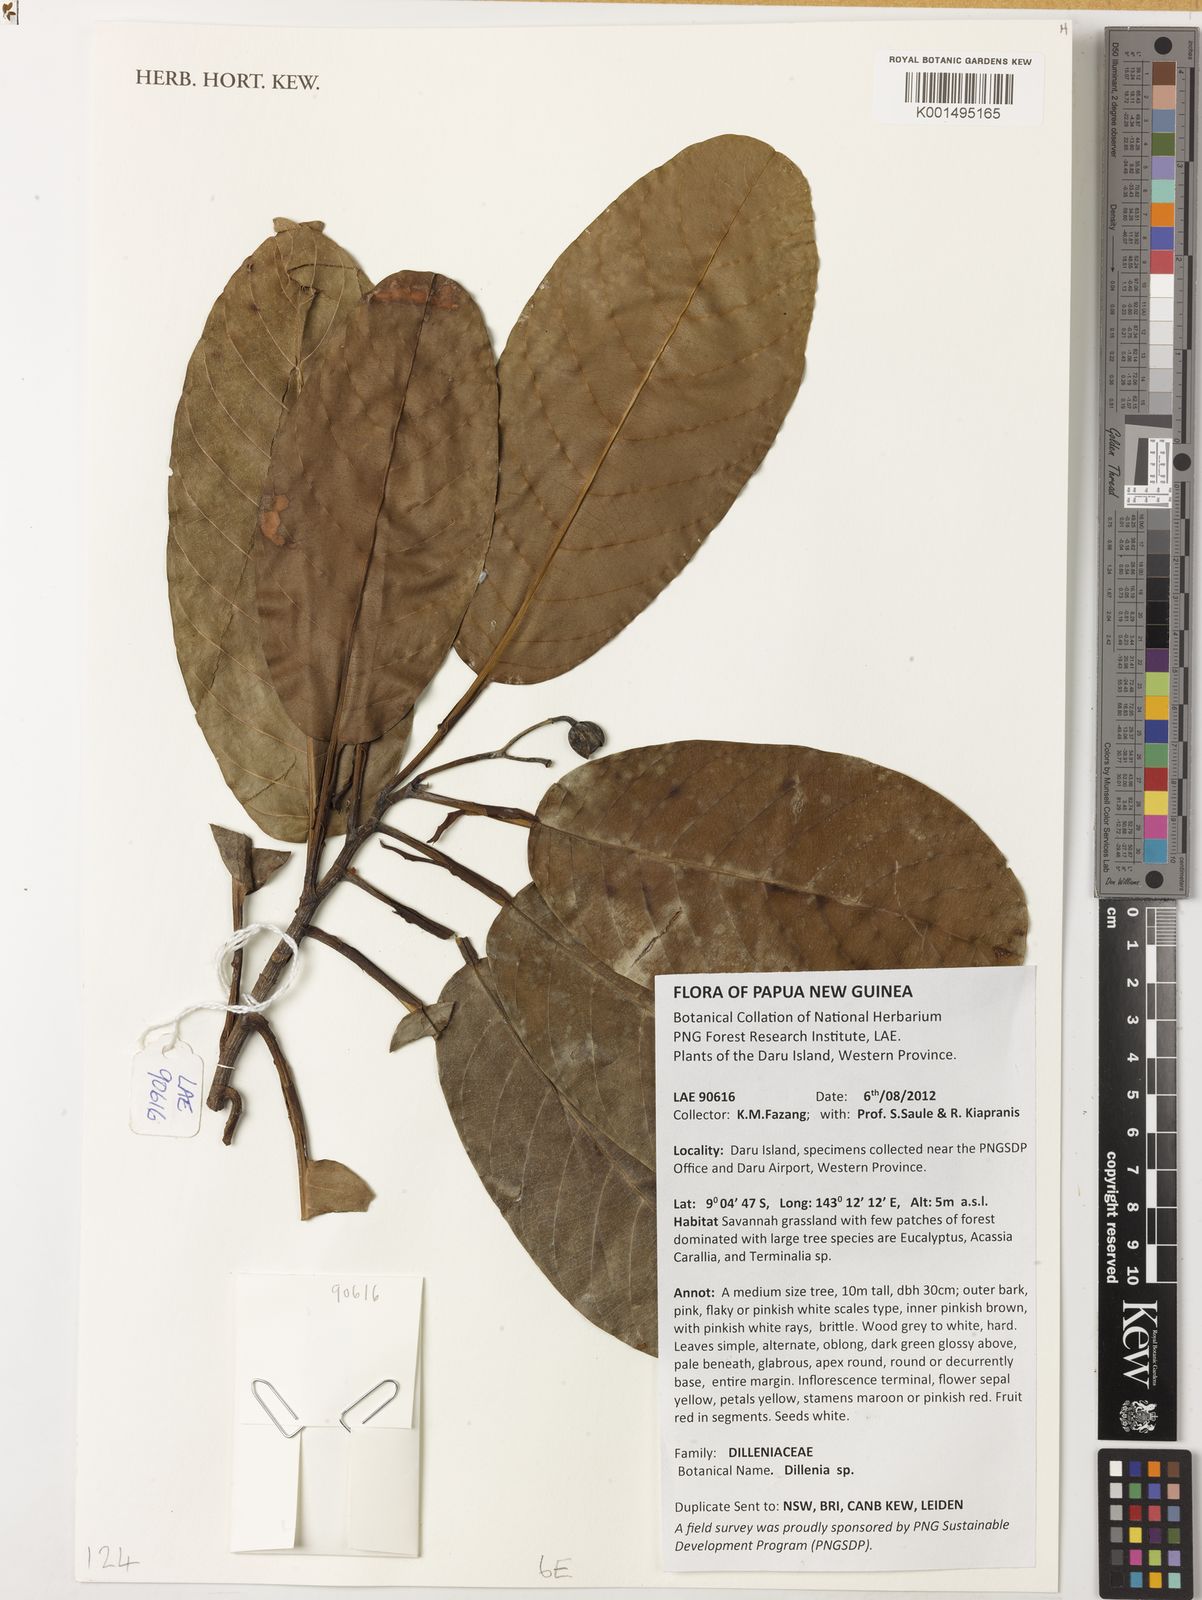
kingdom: Plantae
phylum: Tracheophyta
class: Magnoliopsida
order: Dilleniales
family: Dilleniaceae
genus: Dillenia
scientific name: Dillenia
